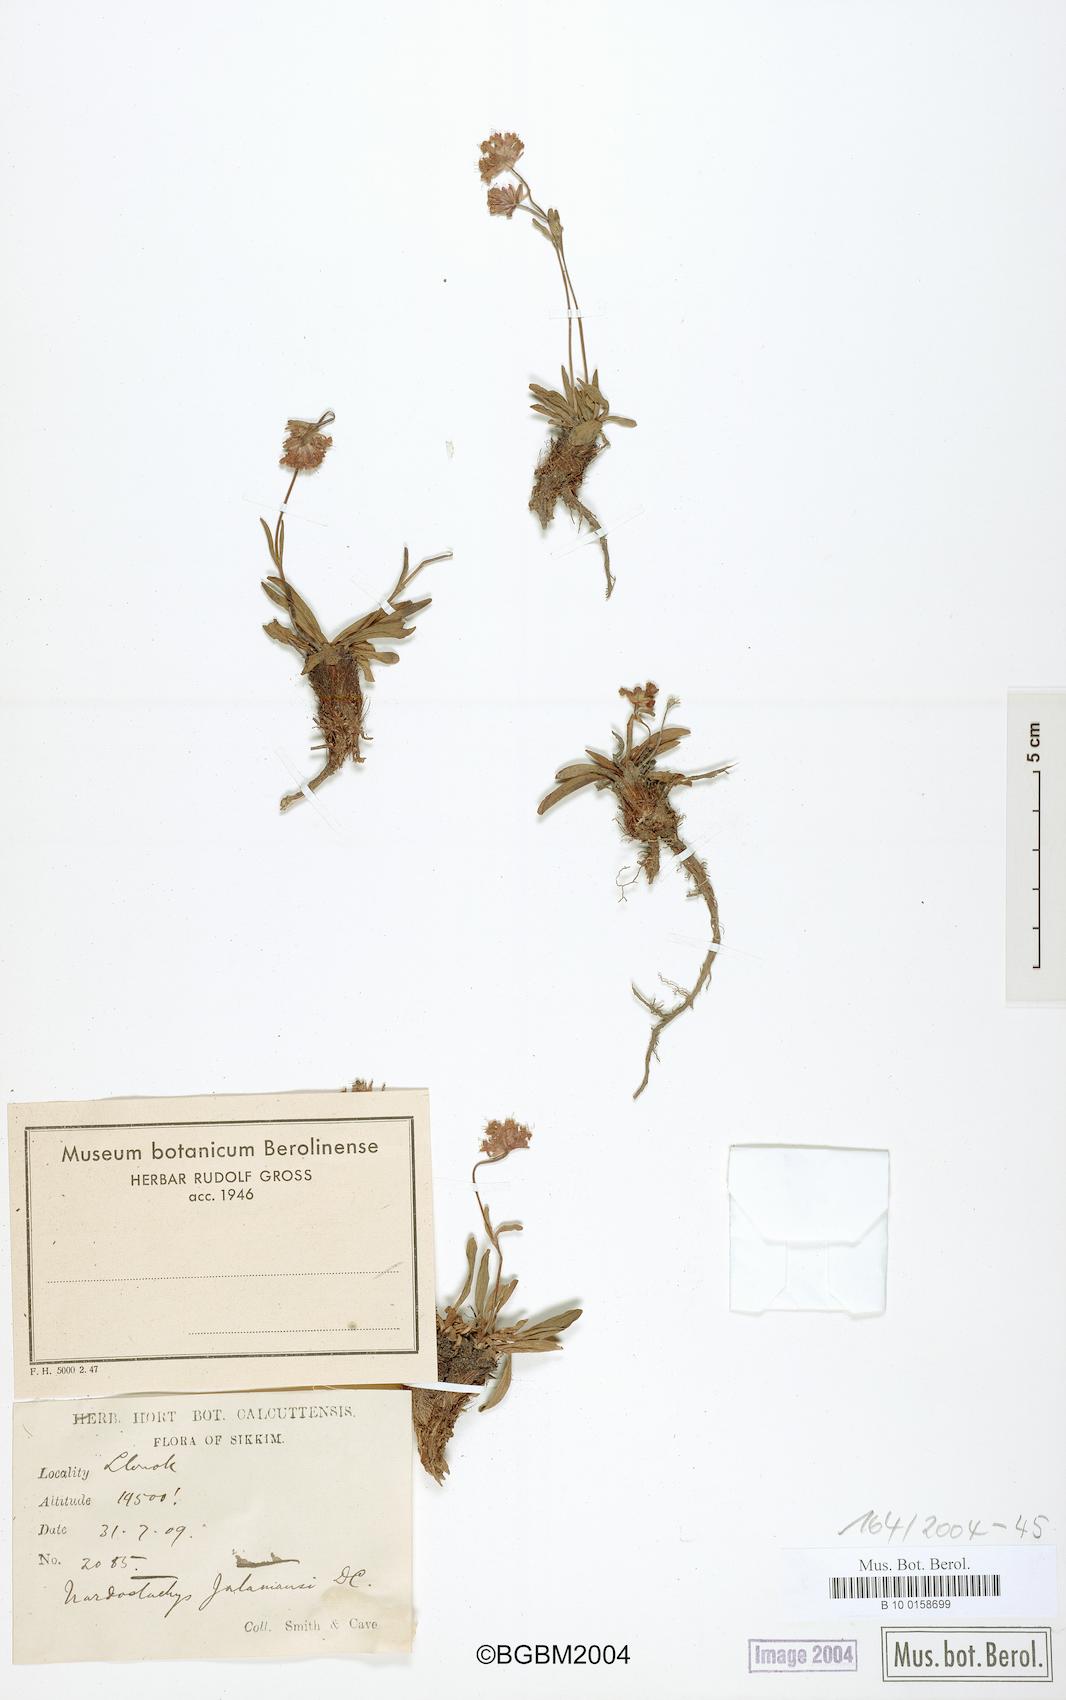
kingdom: Plantae
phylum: Tracheophyta
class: Magnoliopsida
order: Dipsacales
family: Caprifoliaceae
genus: Nardostachys
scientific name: Nardostachys jatamansi
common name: Indian nard
